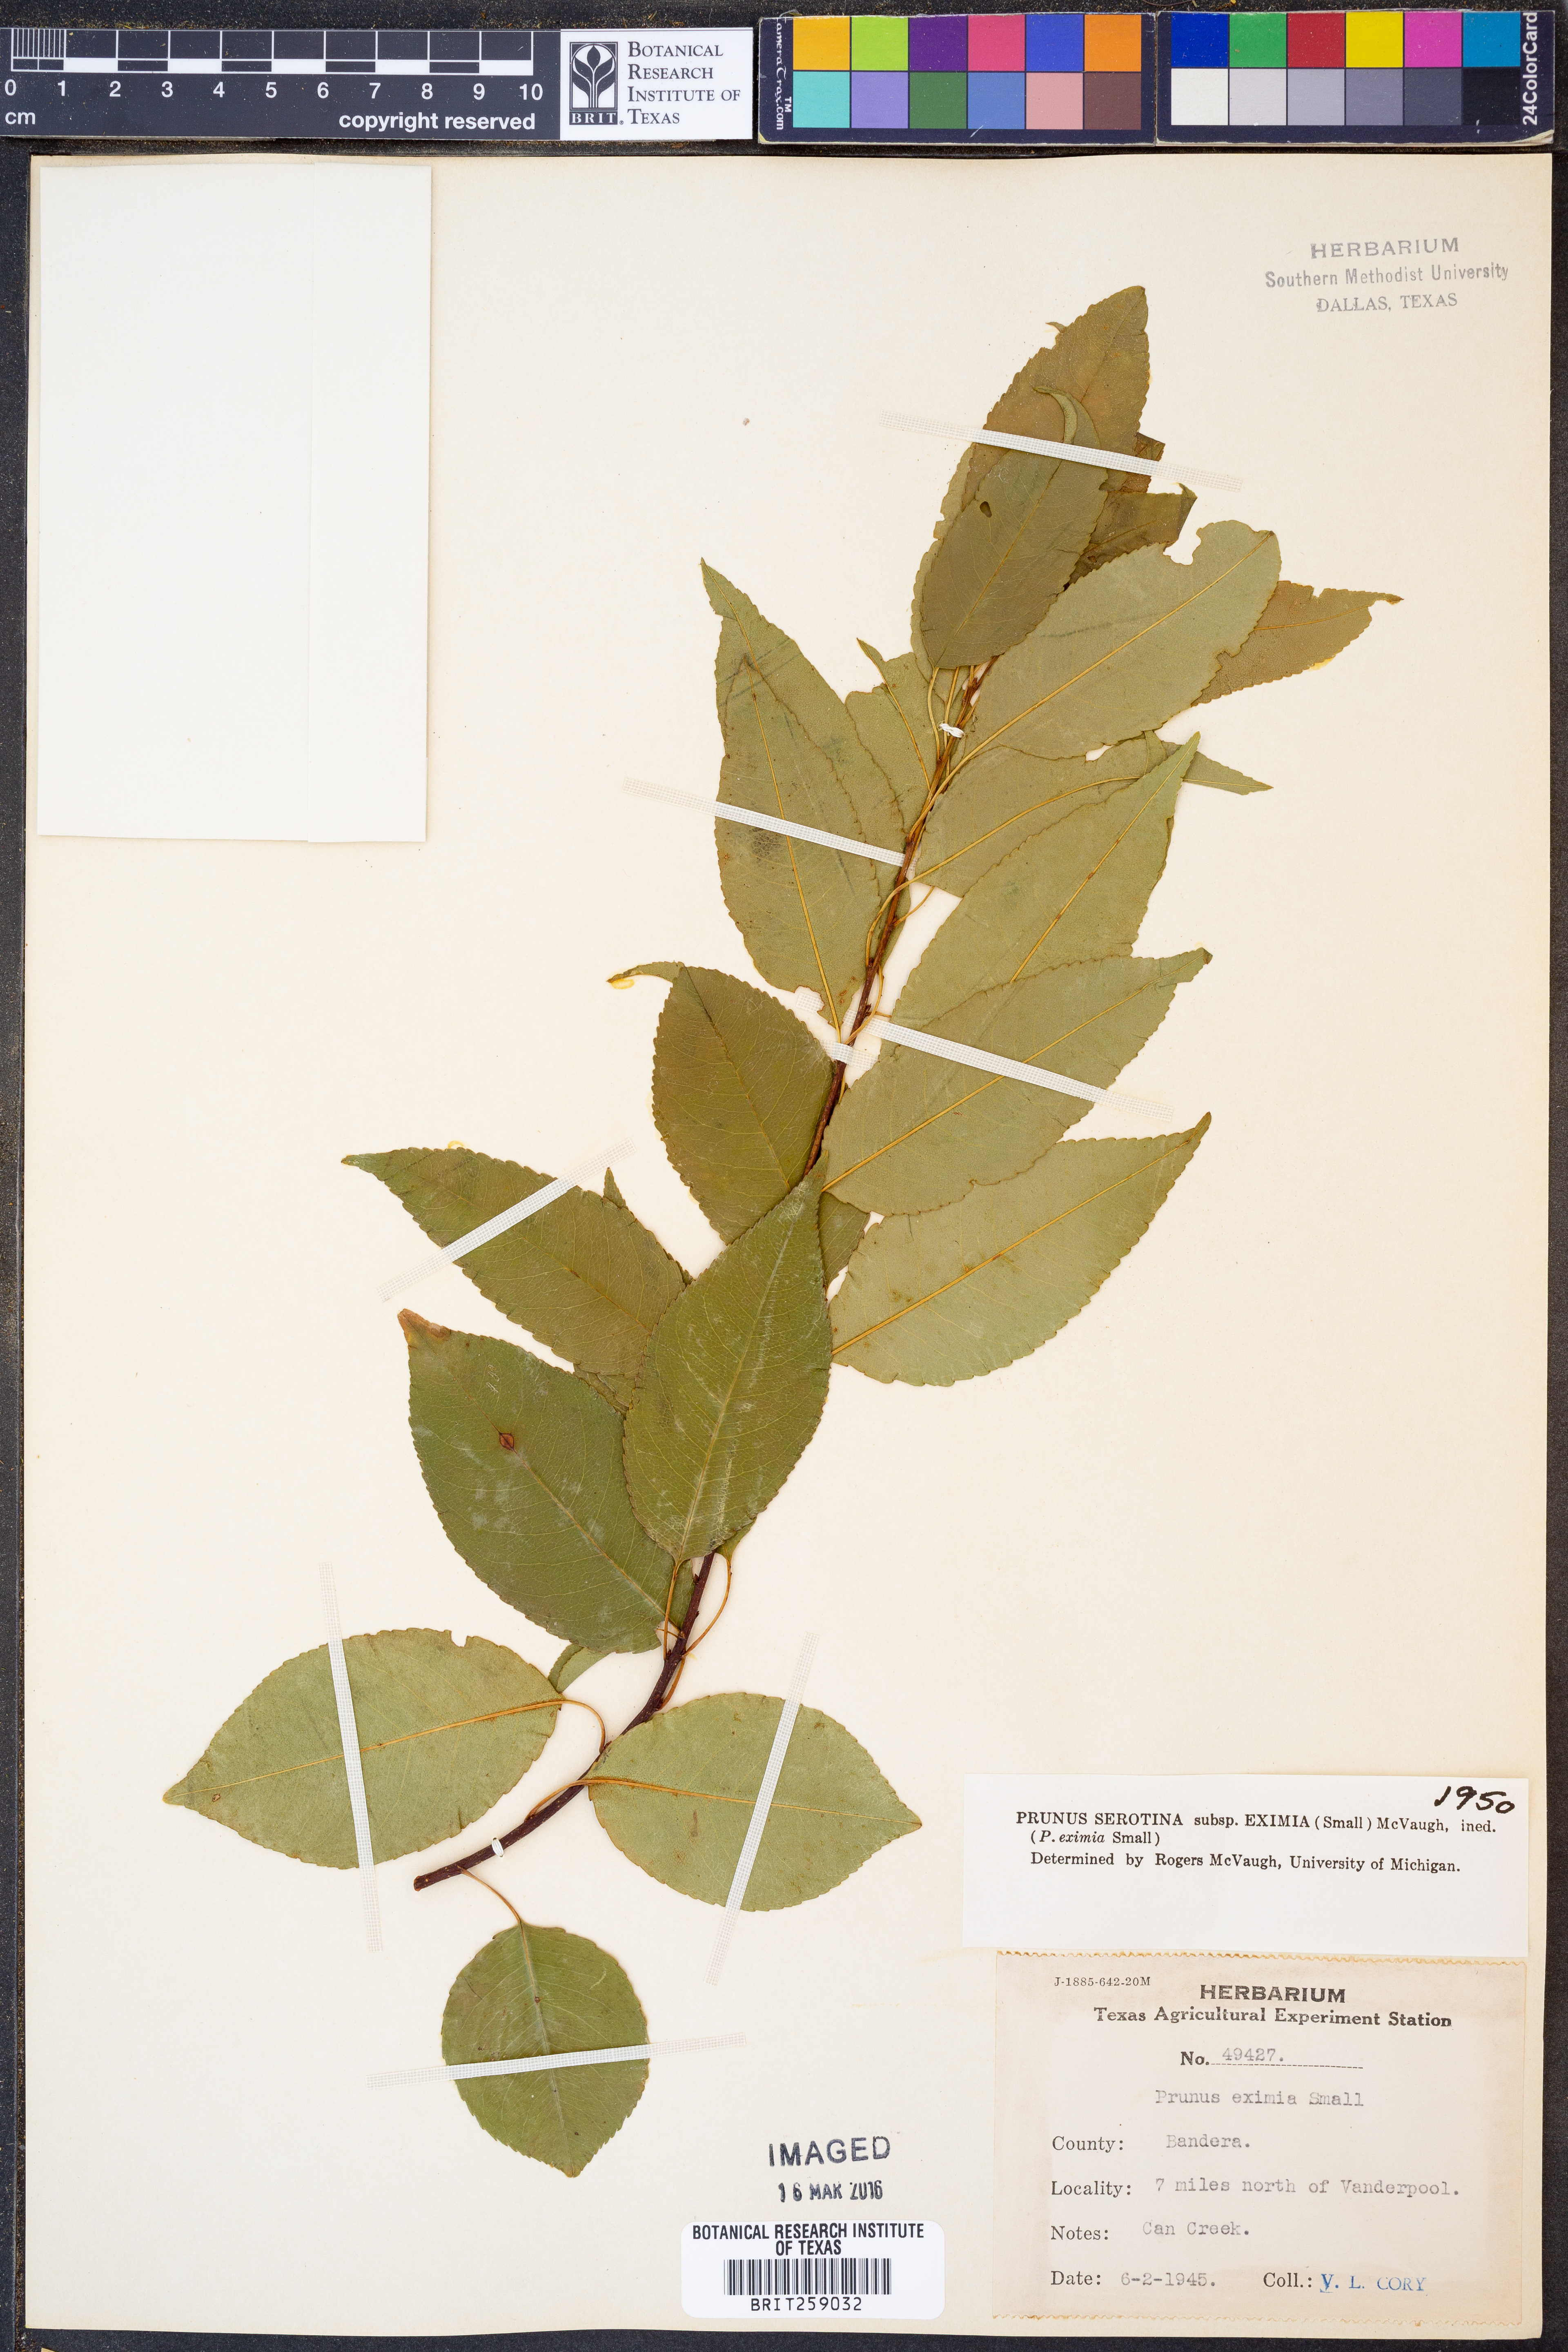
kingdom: Plantae
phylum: Tracheophyta
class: Magnoliopsida
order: Rosales
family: Rosaceae
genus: Prunus
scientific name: Prunus serotina
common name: Black cherry
